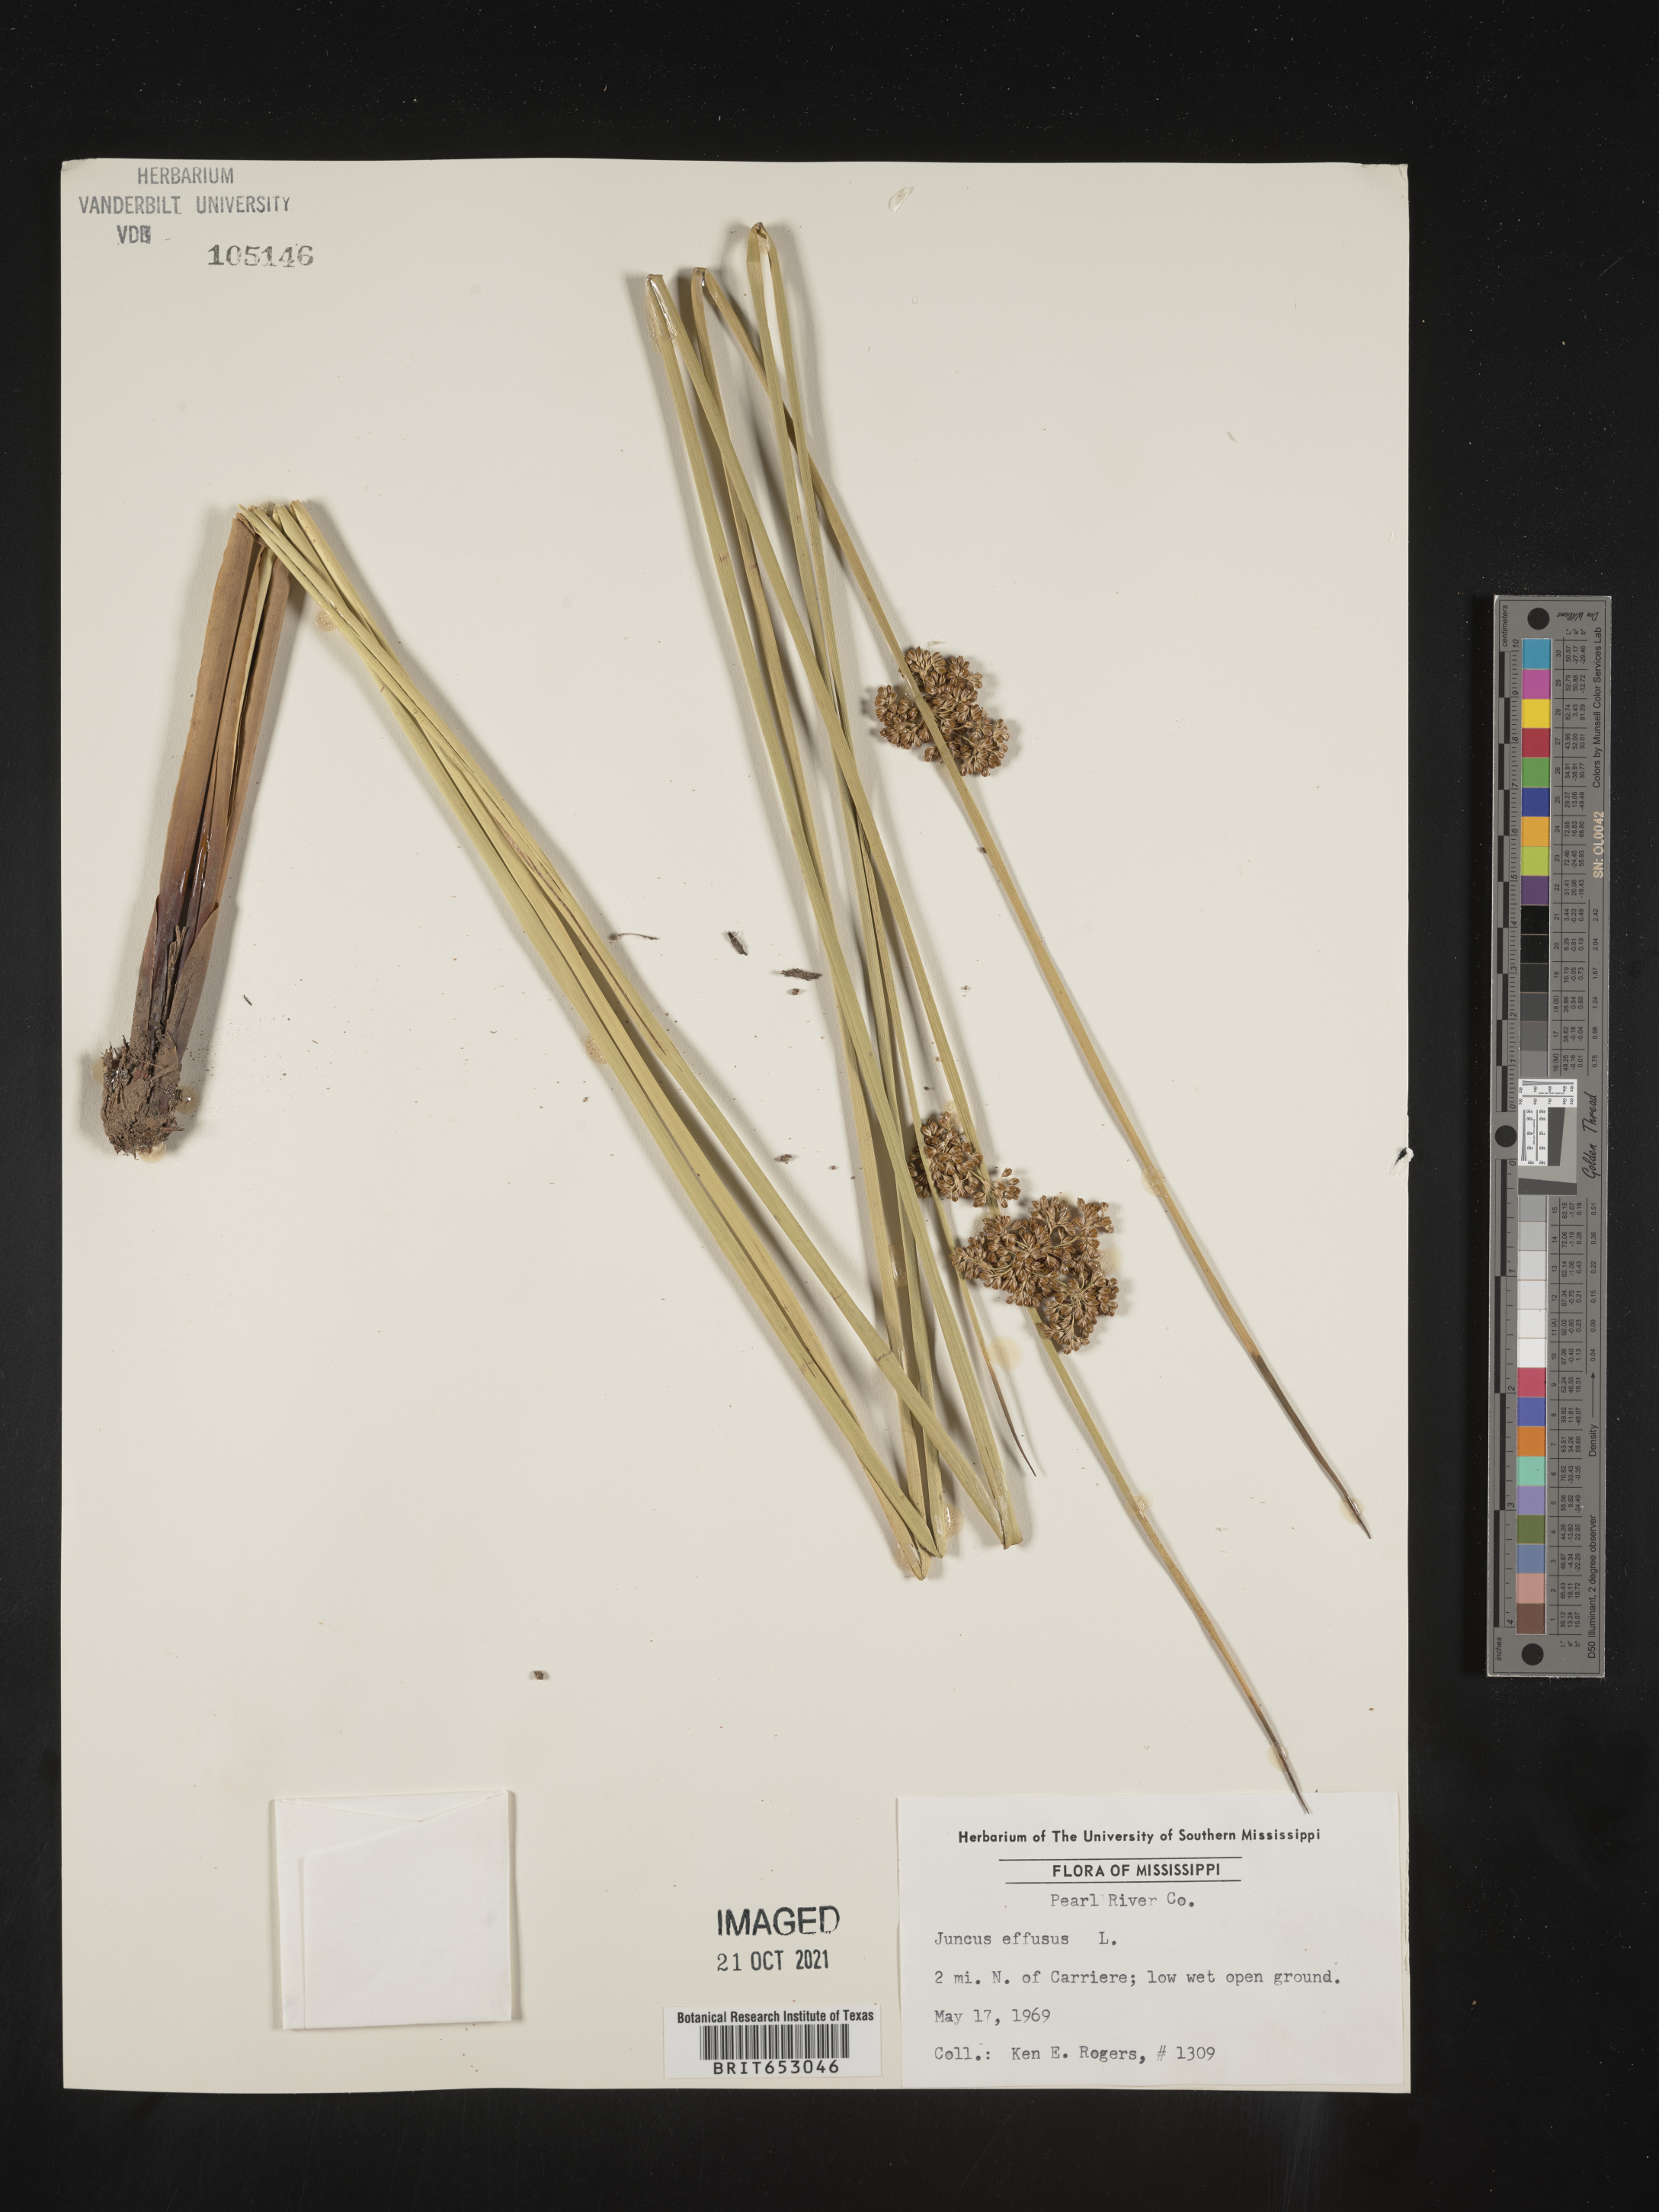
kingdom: Plantae
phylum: Tracheophyta
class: Liliopsida
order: Poales
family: Juncaceae
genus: Juncus
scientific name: Juncus effusus
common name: Soft rush
